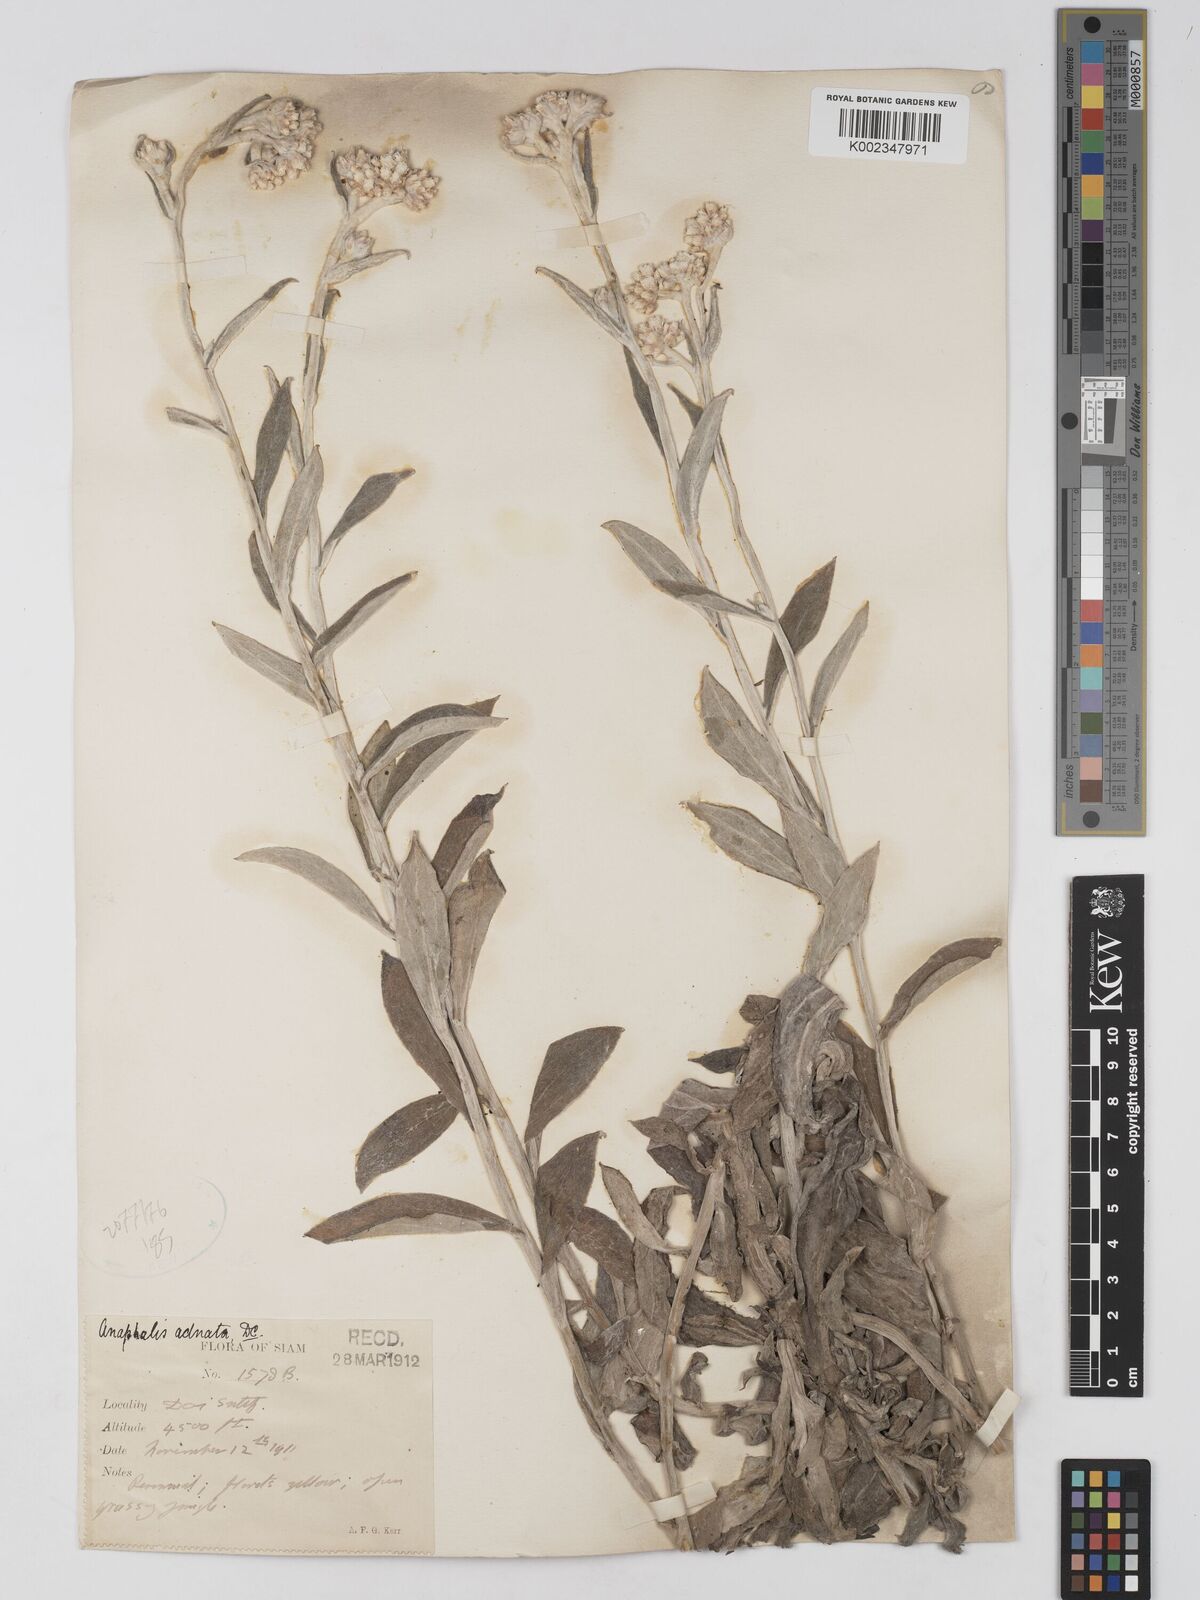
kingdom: Plantae
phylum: Tracheophyta
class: Magnoliopsida
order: Asterales
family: Asteraceae
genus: Pseudognaphalium
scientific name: Pseudognaphalium adnatum
